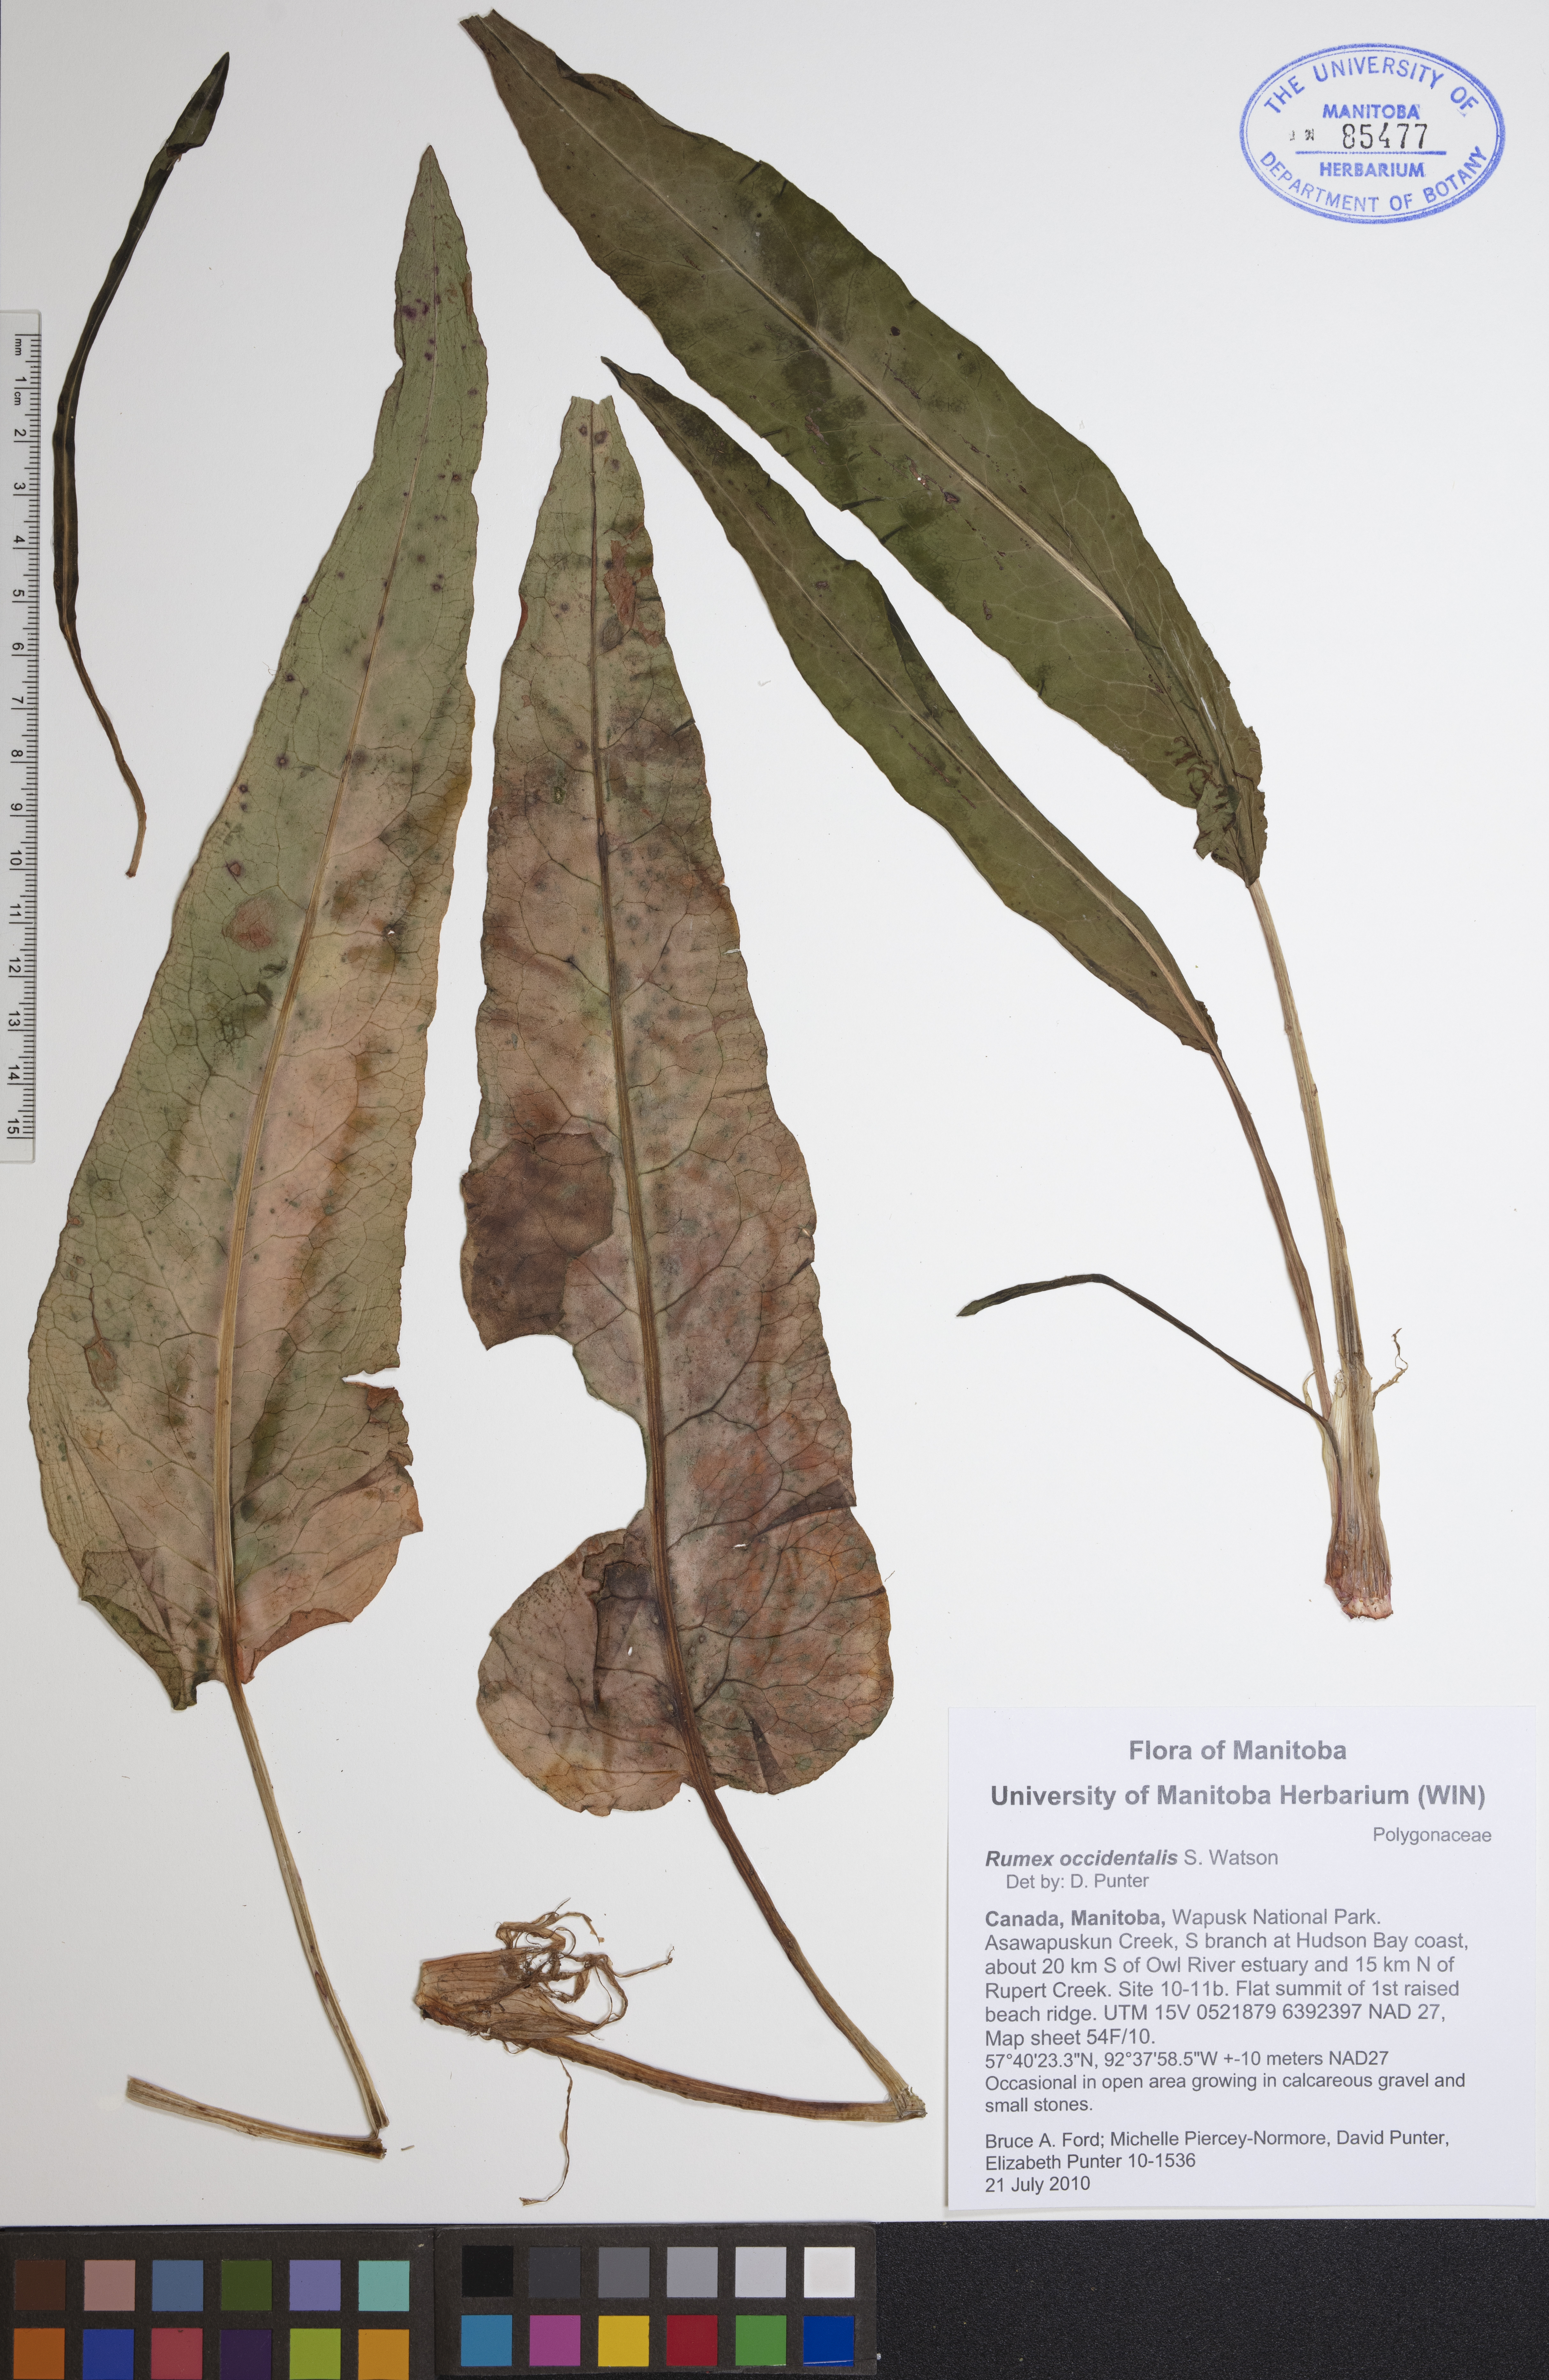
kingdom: Plantae
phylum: Tracheophyta
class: Magnoliopsida
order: Caryophyllales
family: Polygonaceae
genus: Rumex
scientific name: Rumex occidentalis
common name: Western dock
